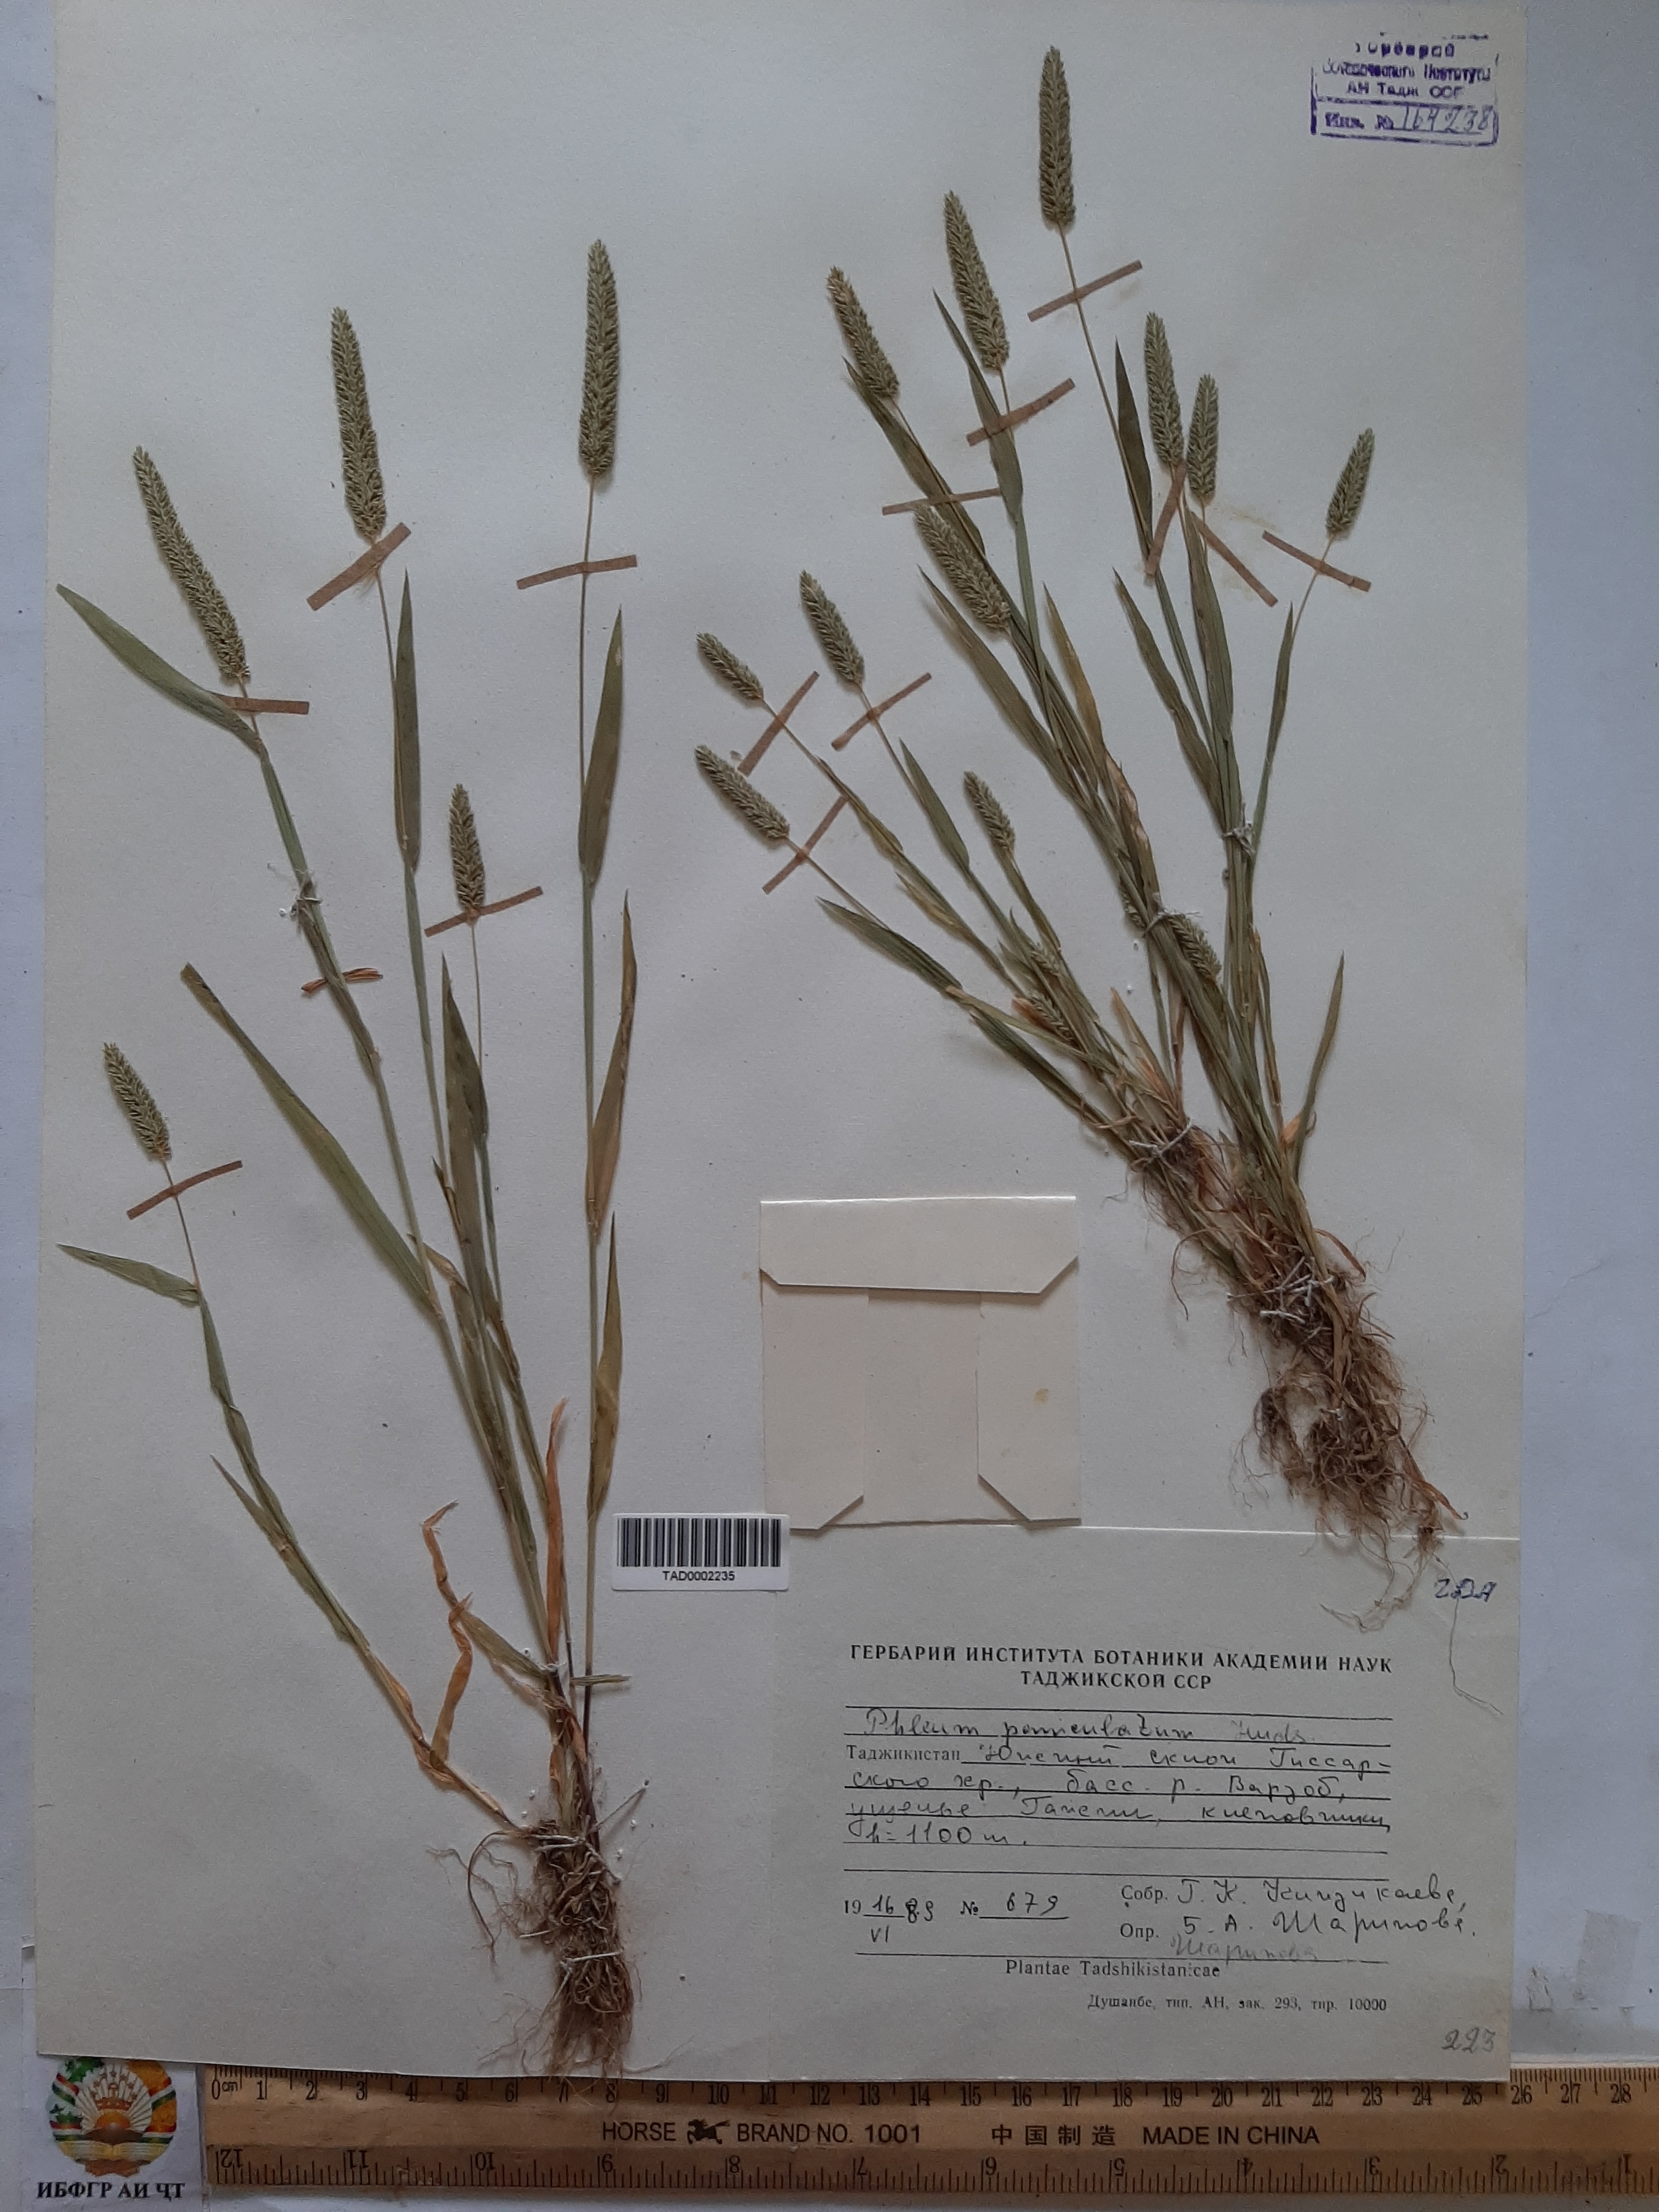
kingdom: Plantae
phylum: Tracheophyta
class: Liliopsida
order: Poales
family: Poaceae
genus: Phleum
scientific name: Phleum paniculatum
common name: British timothy
